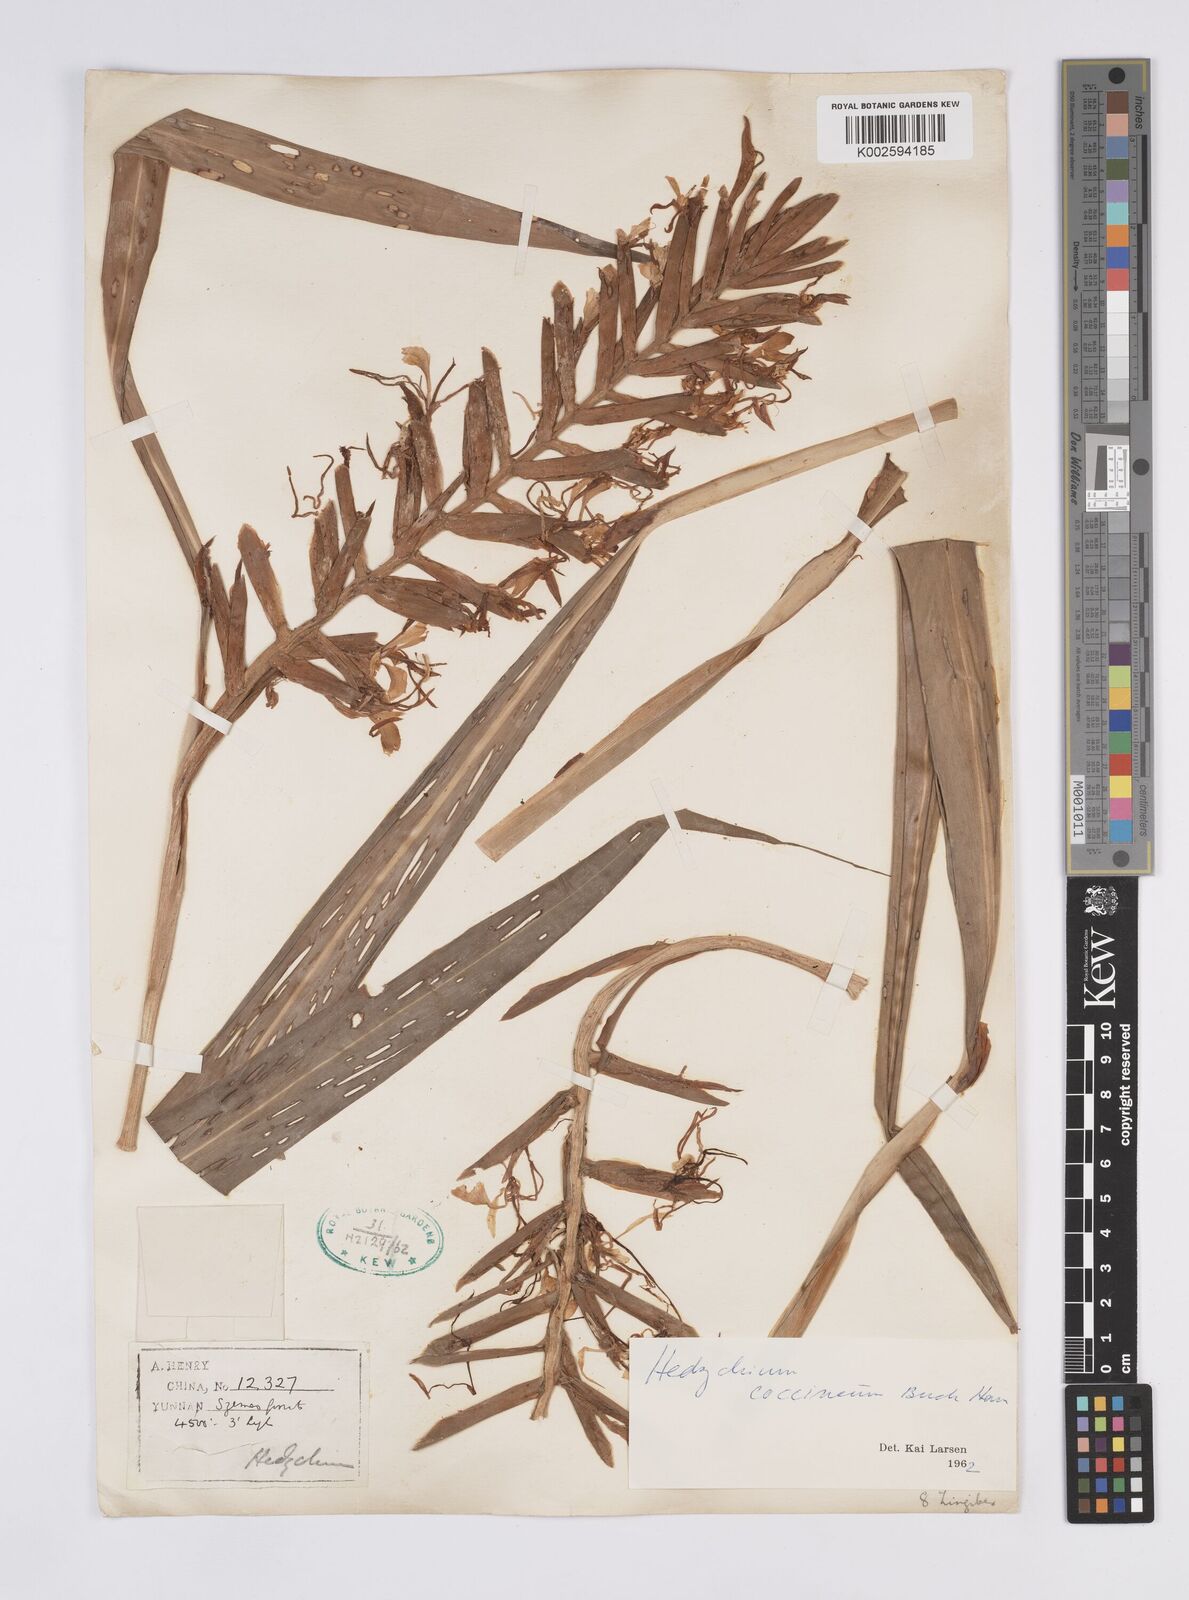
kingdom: Plantae
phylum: Tracheophyta
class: Liliopsida
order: Zingiberales
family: Zingiberaceae
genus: Hedychium
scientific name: Hedychium coccineum
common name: Red ginger-lily
